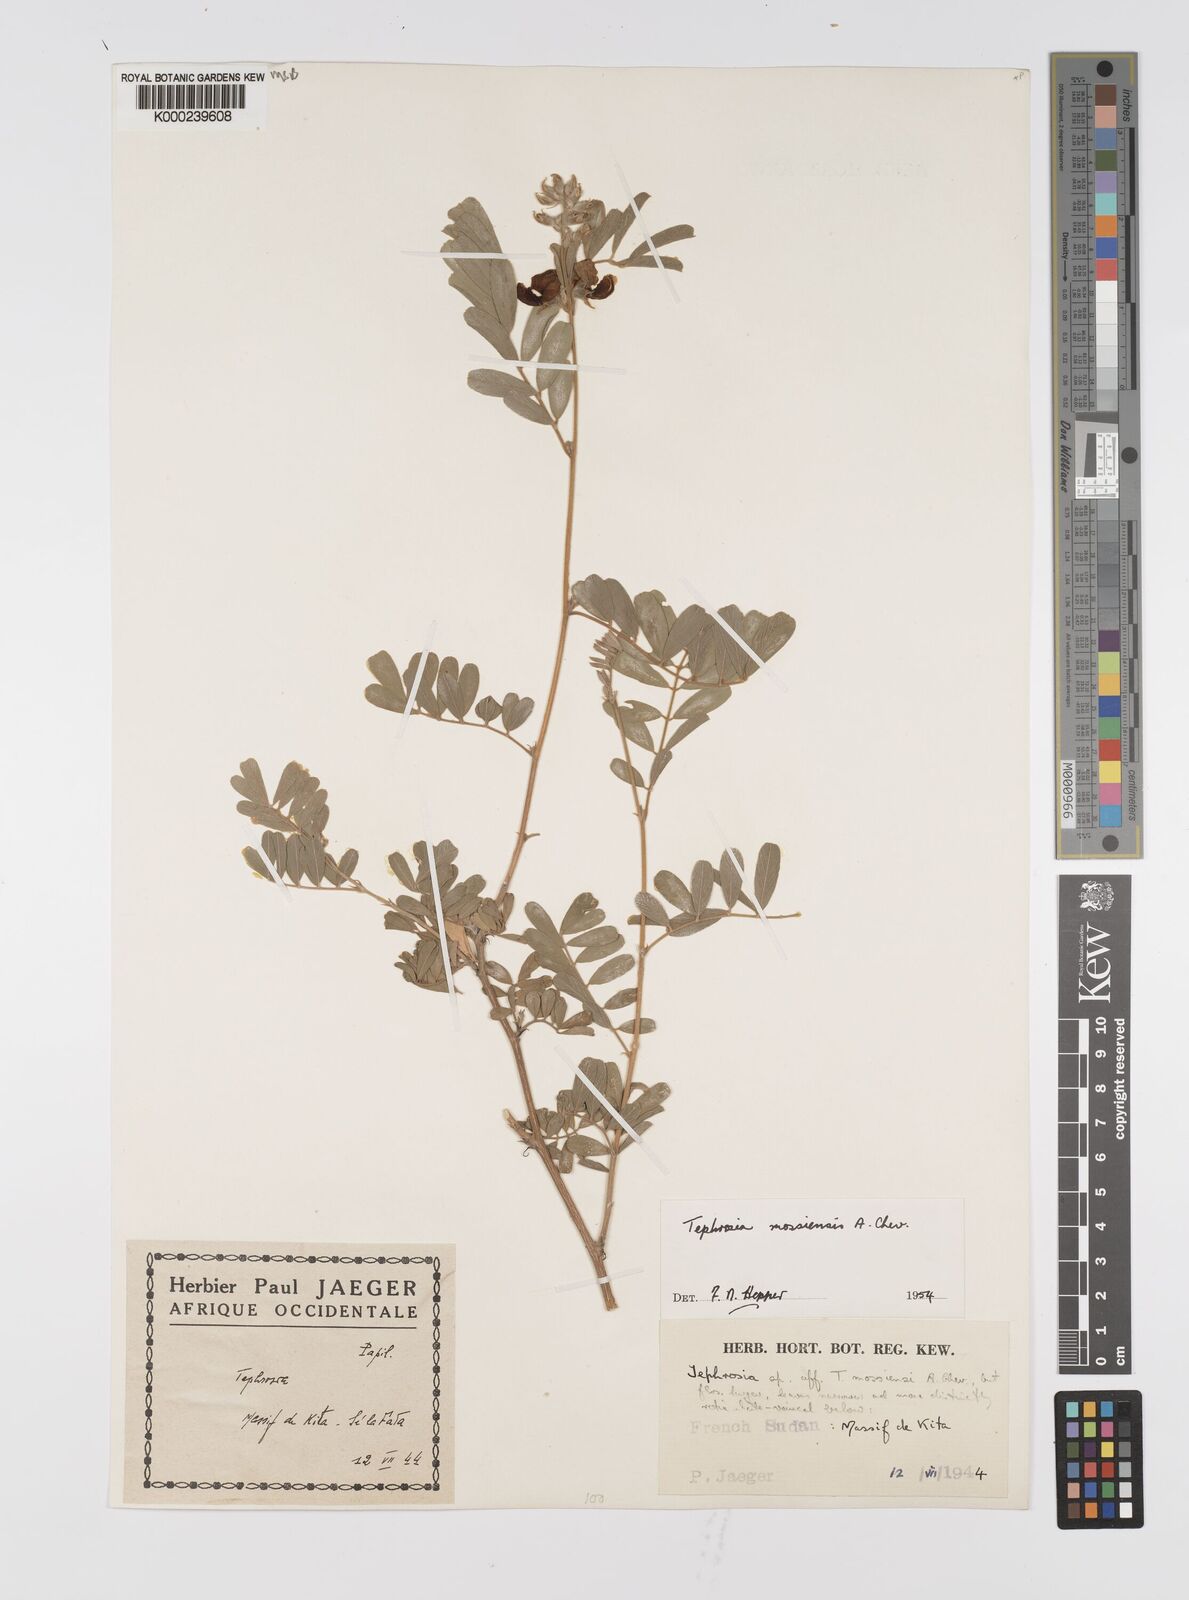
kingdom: Plantae
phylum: Tracheophyta
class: Magnoliopsida
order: Fabales
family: Fabaceae
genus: Tephrosia
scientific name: Tephrosia mossiensis
